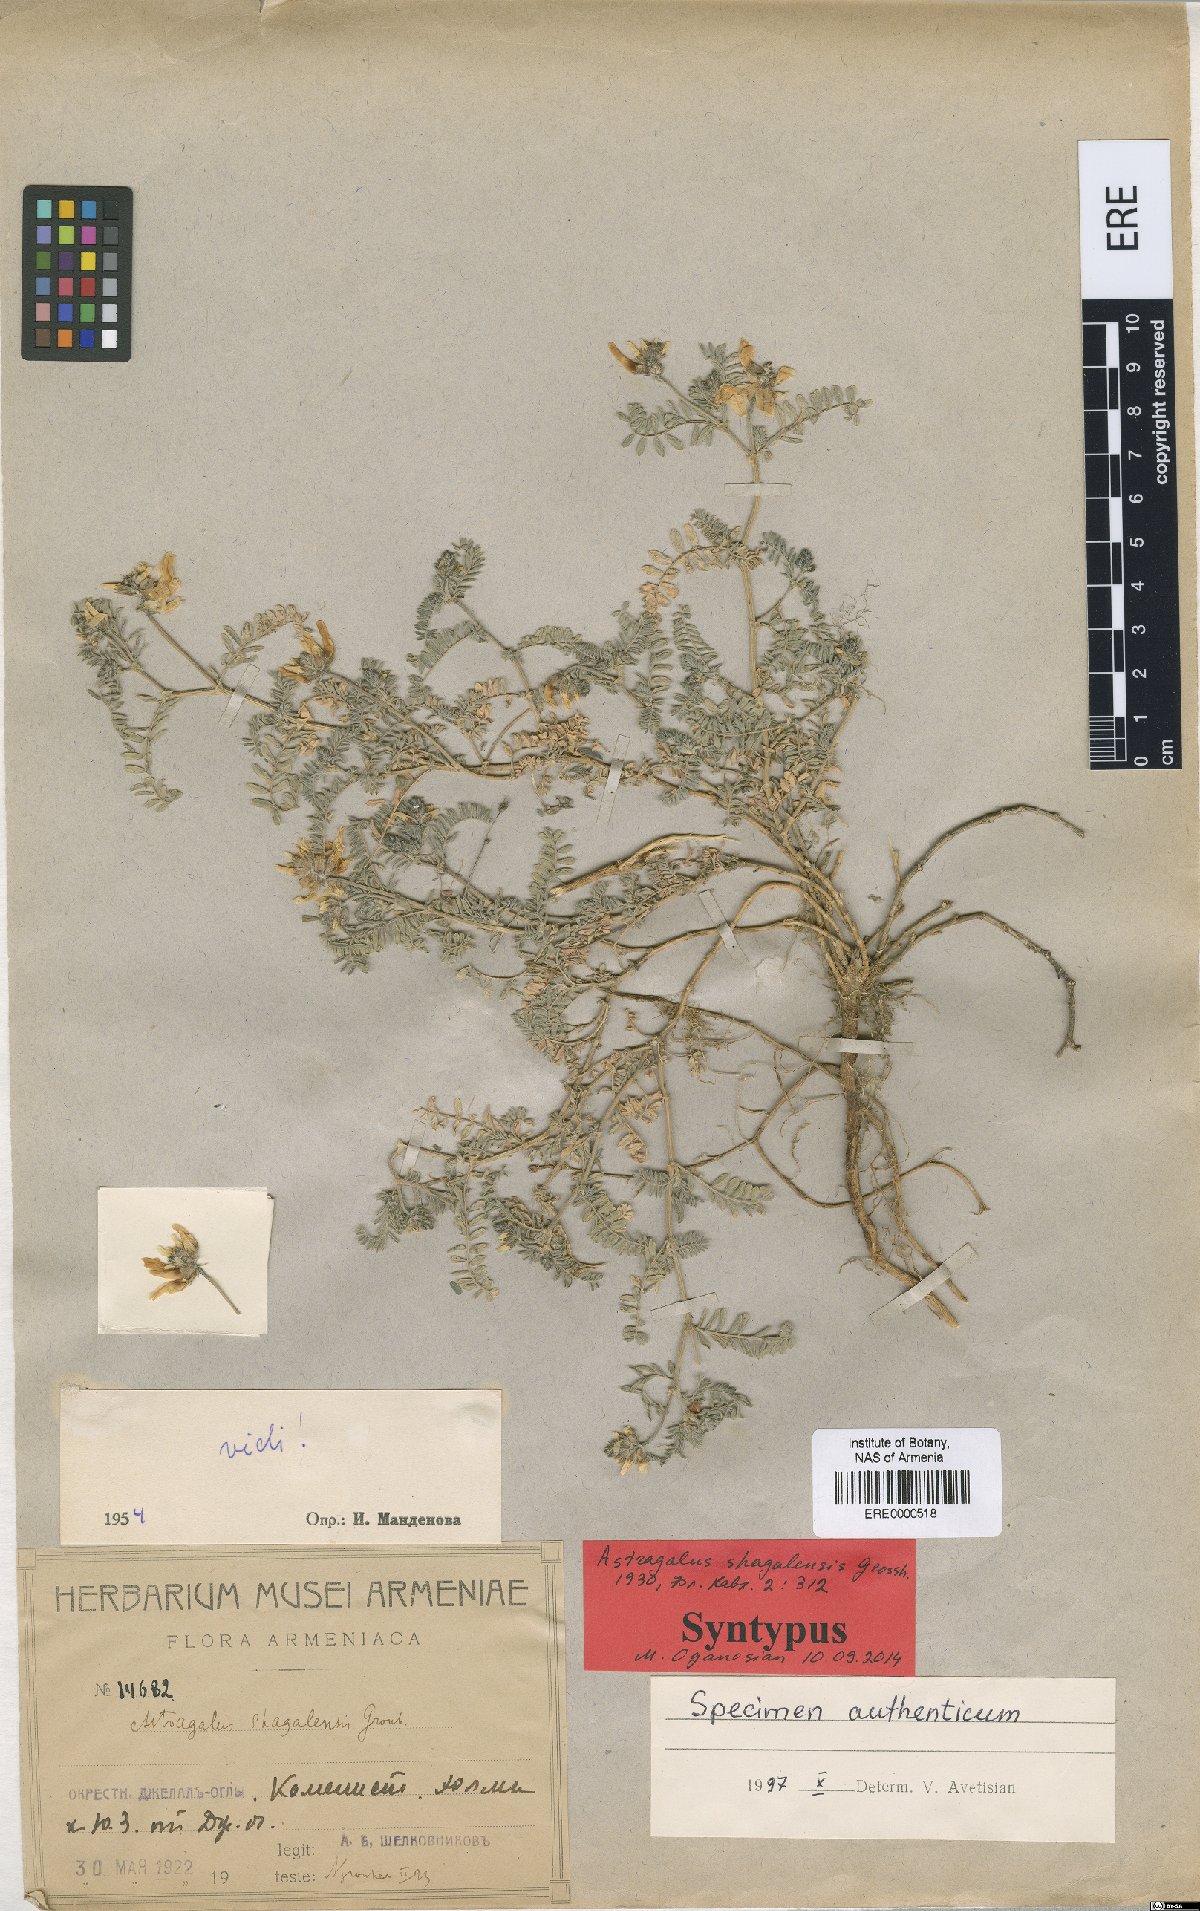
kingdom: Plantae
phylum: Tracheophyta
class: Magnoliopsida
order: Fabales
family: Fabaceae
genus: Astragalus
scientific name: Astragalus shagalensis
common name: Shagalian milk vetch
